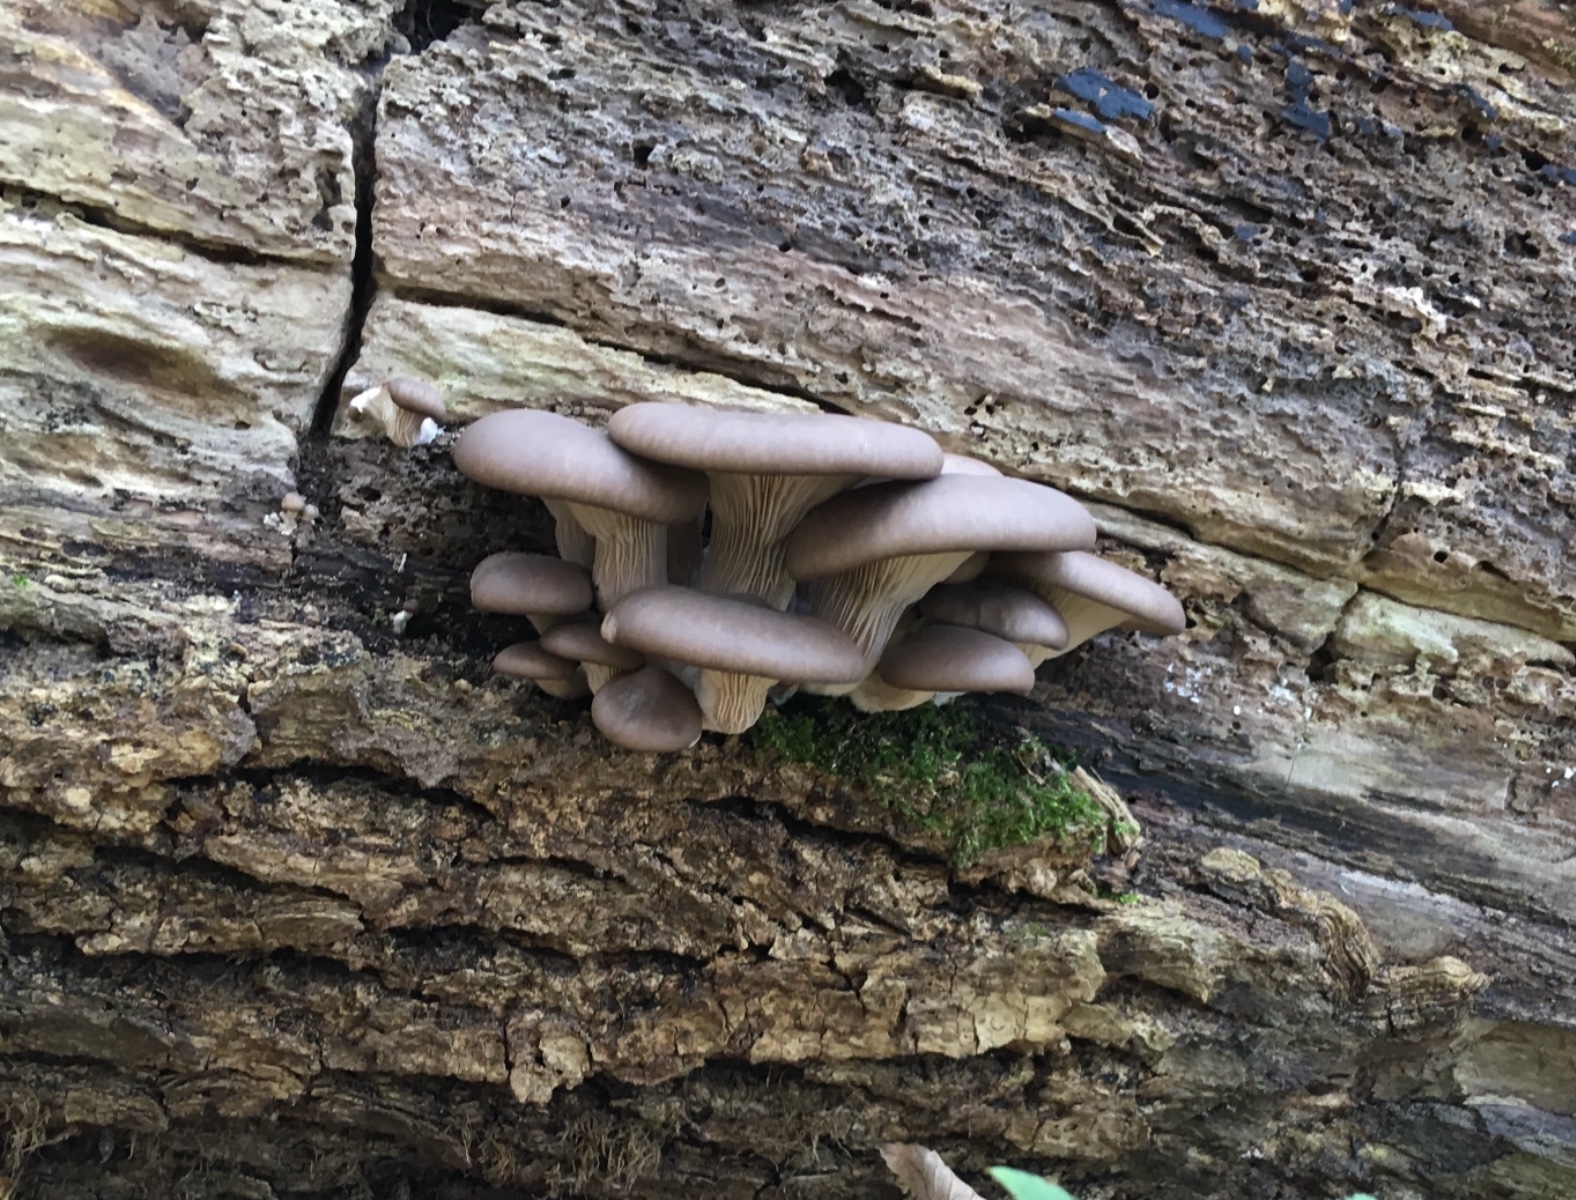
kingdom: Fungi
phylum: Basidiomycota
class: Agaricomycetes
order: Agaricales
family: Pleurotaceae
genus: Pleurotus
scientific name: Pleurotus ostreatus
